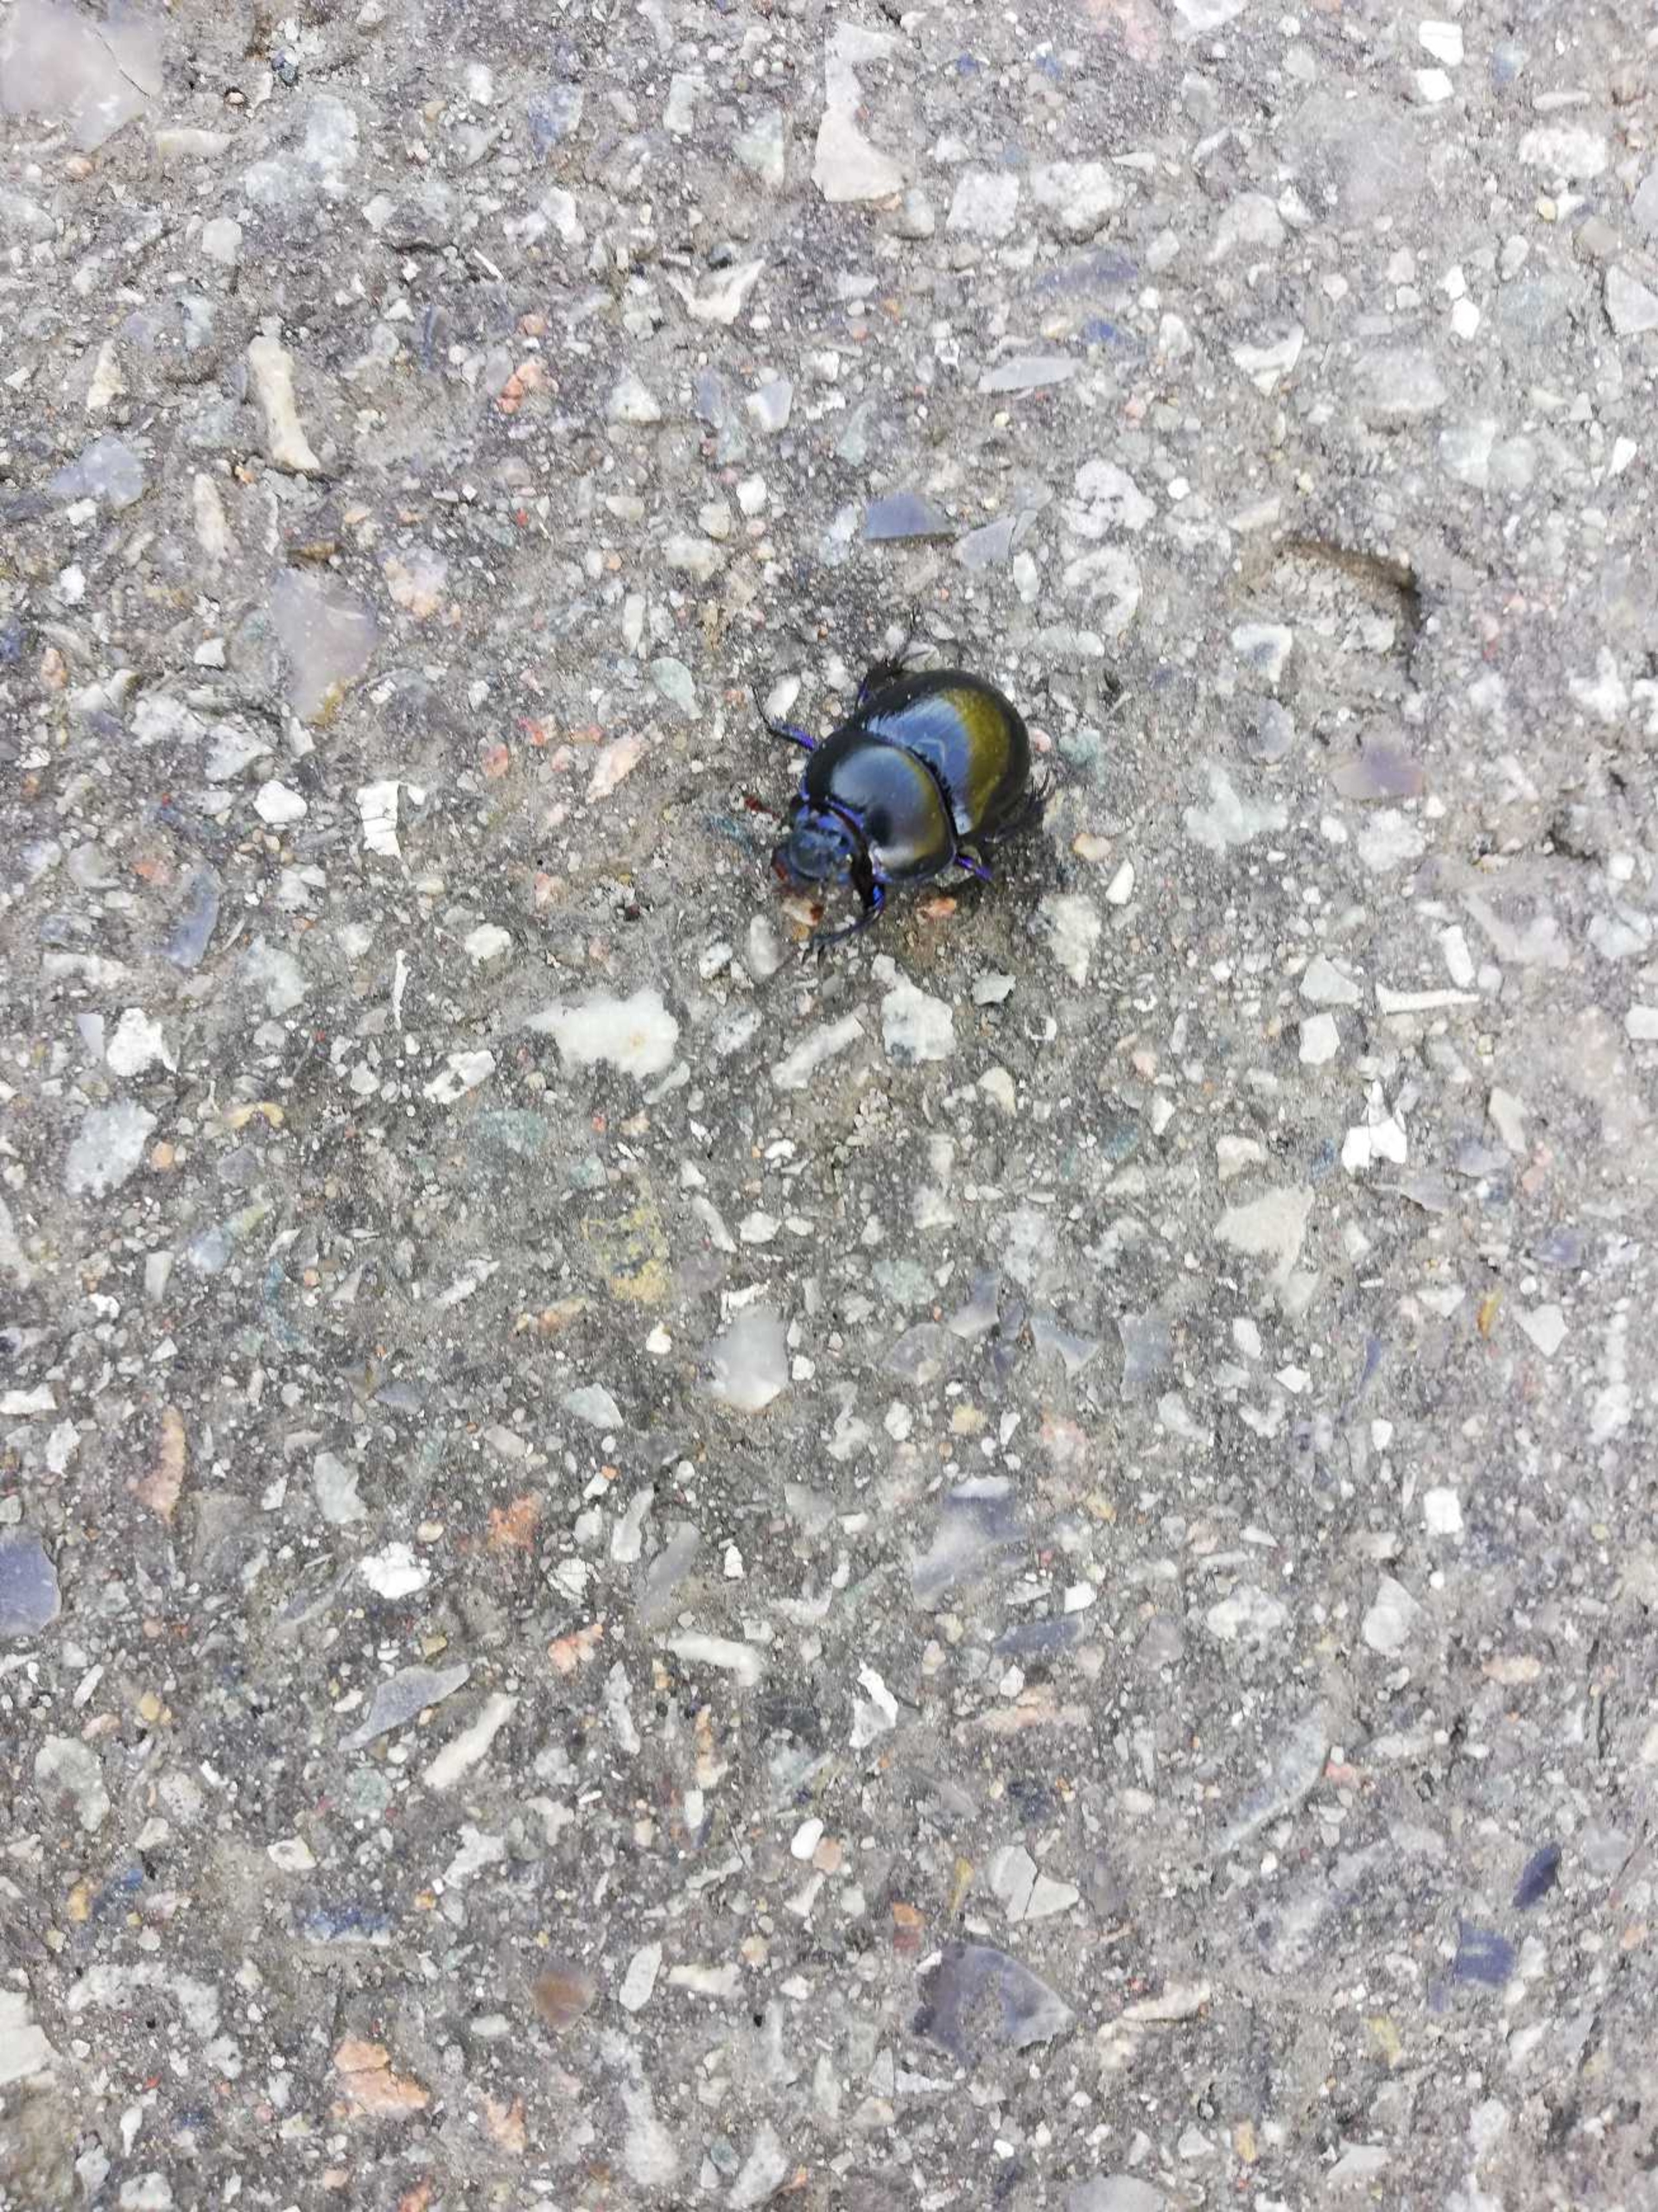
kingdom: Animalia
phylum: Arthropoda
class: Insecta
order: Coleoptera
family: Geotrupidae
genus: Anoplotrupes
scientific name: Anoplotrupes stercorosus
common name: Skovskarnbasse
